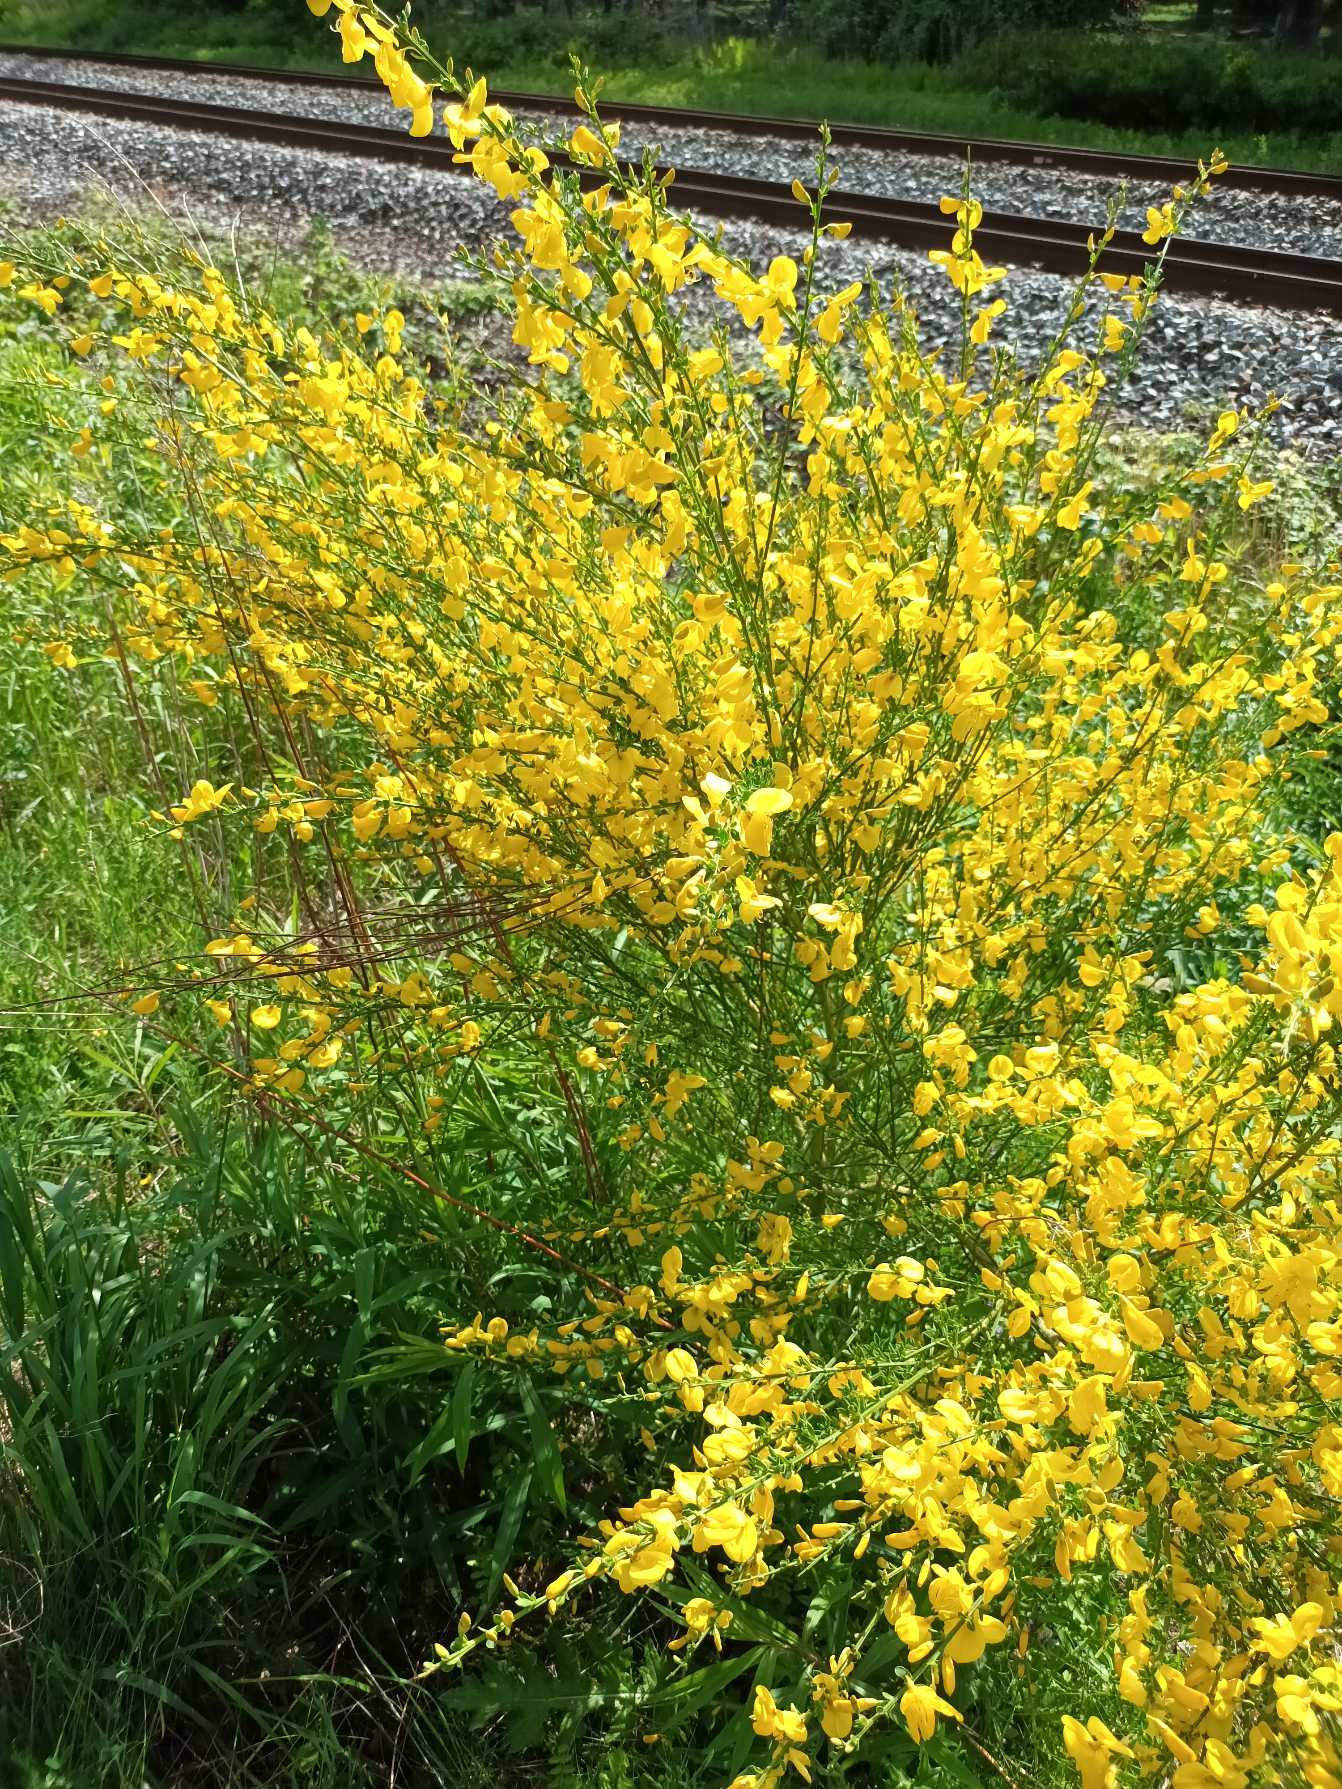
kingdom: Plantae
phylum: Tracheophyta
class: Magnoliopsida
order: Fabales
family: Fabaceae
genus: Cytisus
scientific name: Cytisus scoparius
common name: Almindelig gyvel
